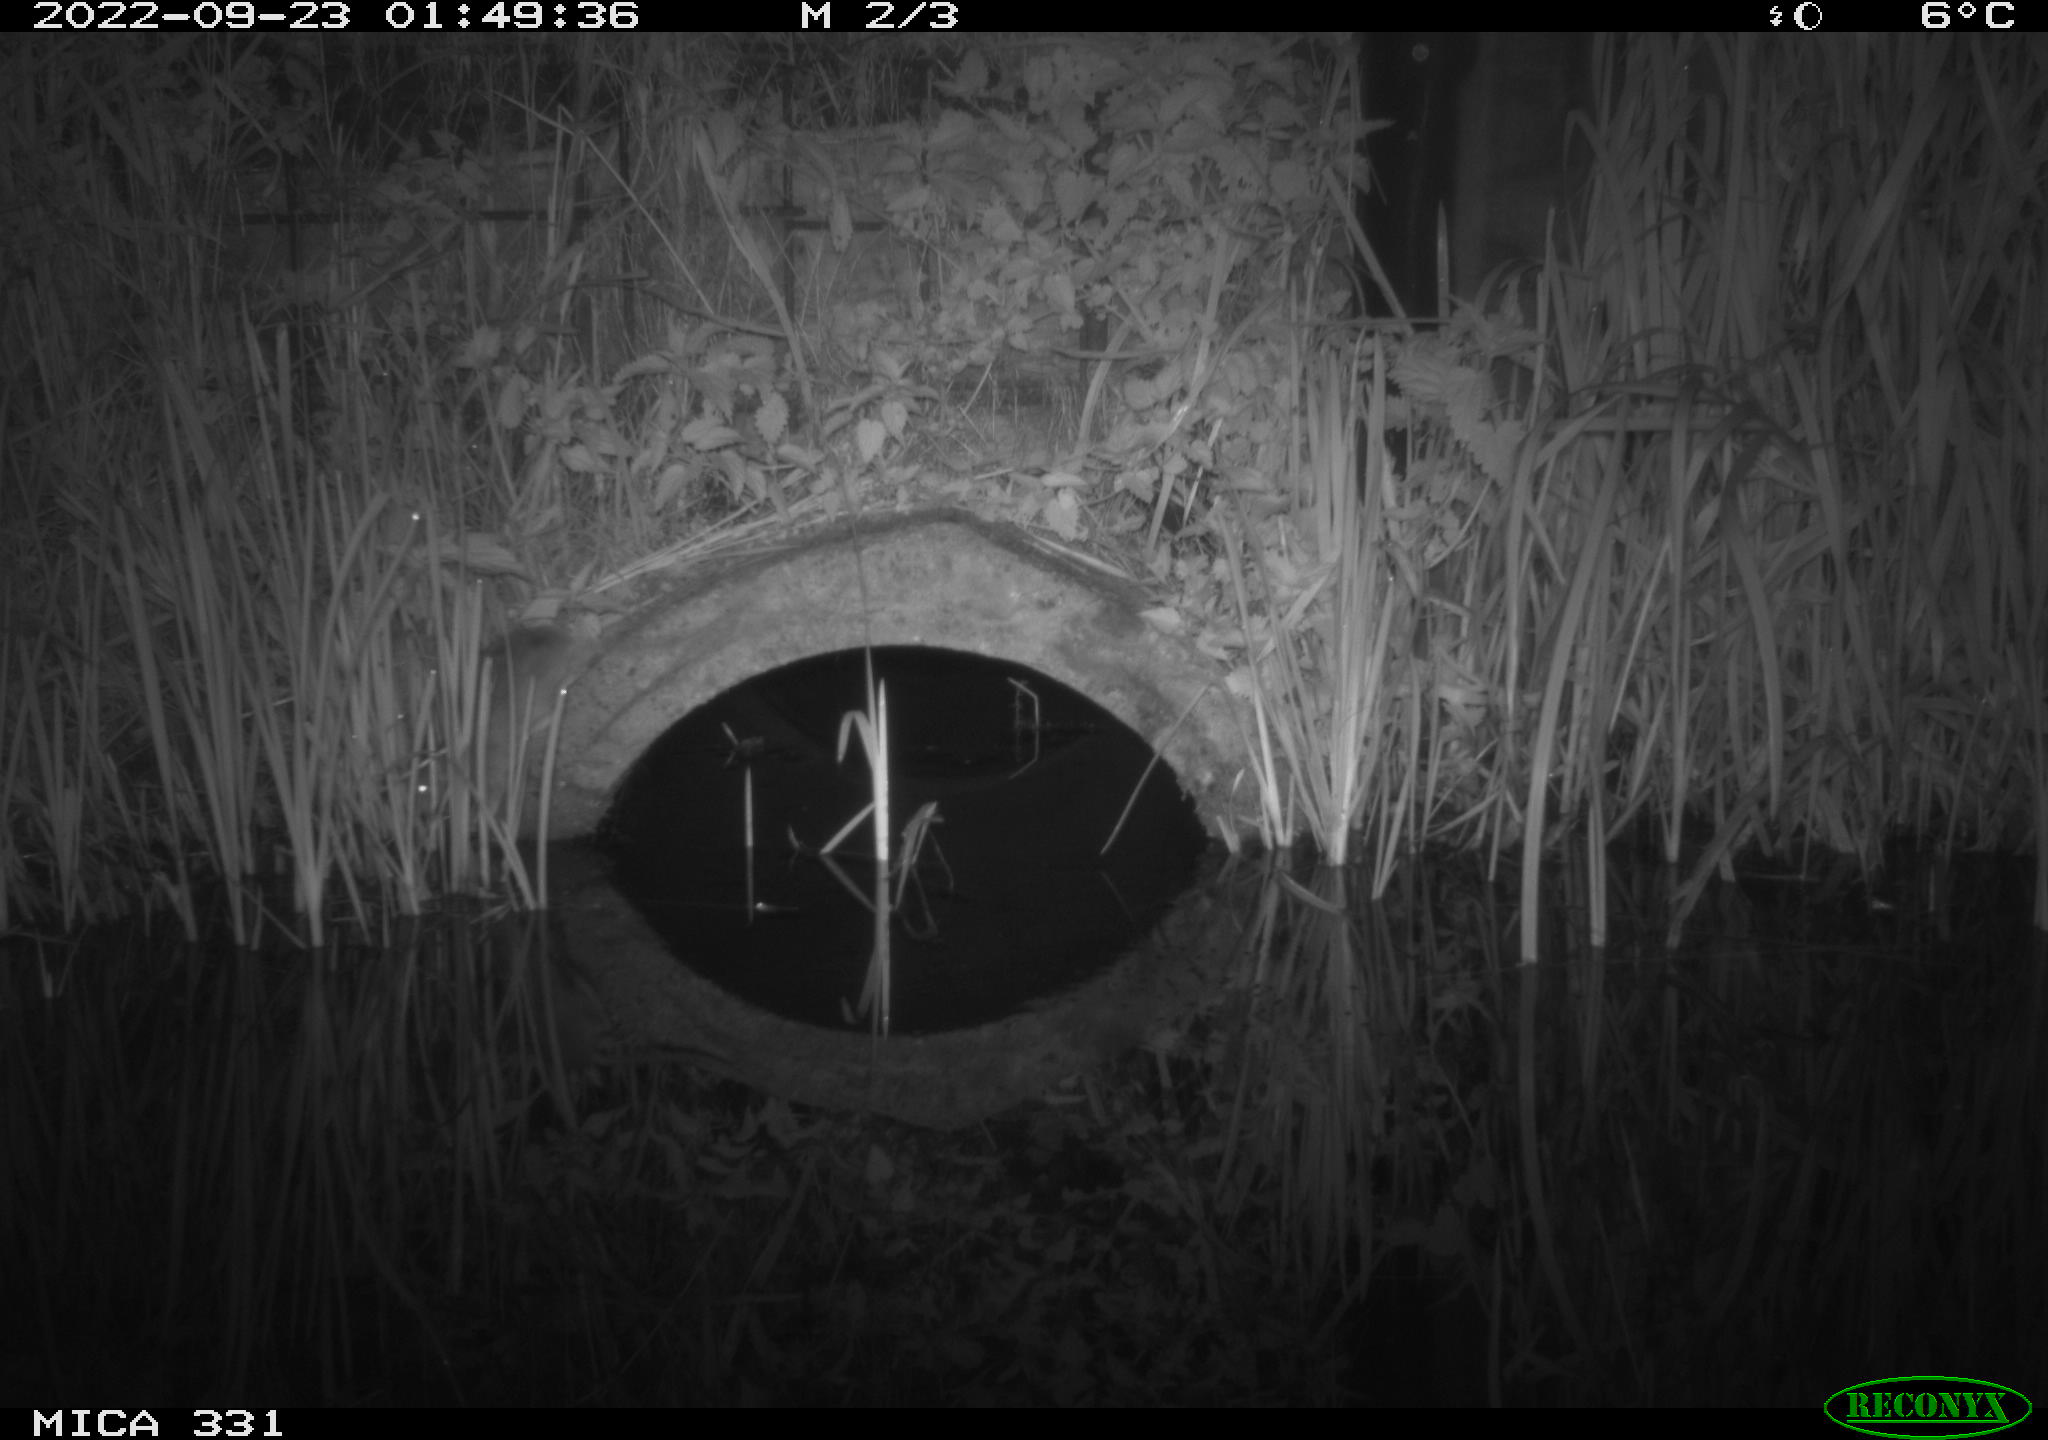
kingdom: Animalia
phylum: Chordata
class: Mammalia
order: Rodentia
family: Muridae
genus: Rattus
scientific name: Rattus norvegicus
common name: Brown rat
